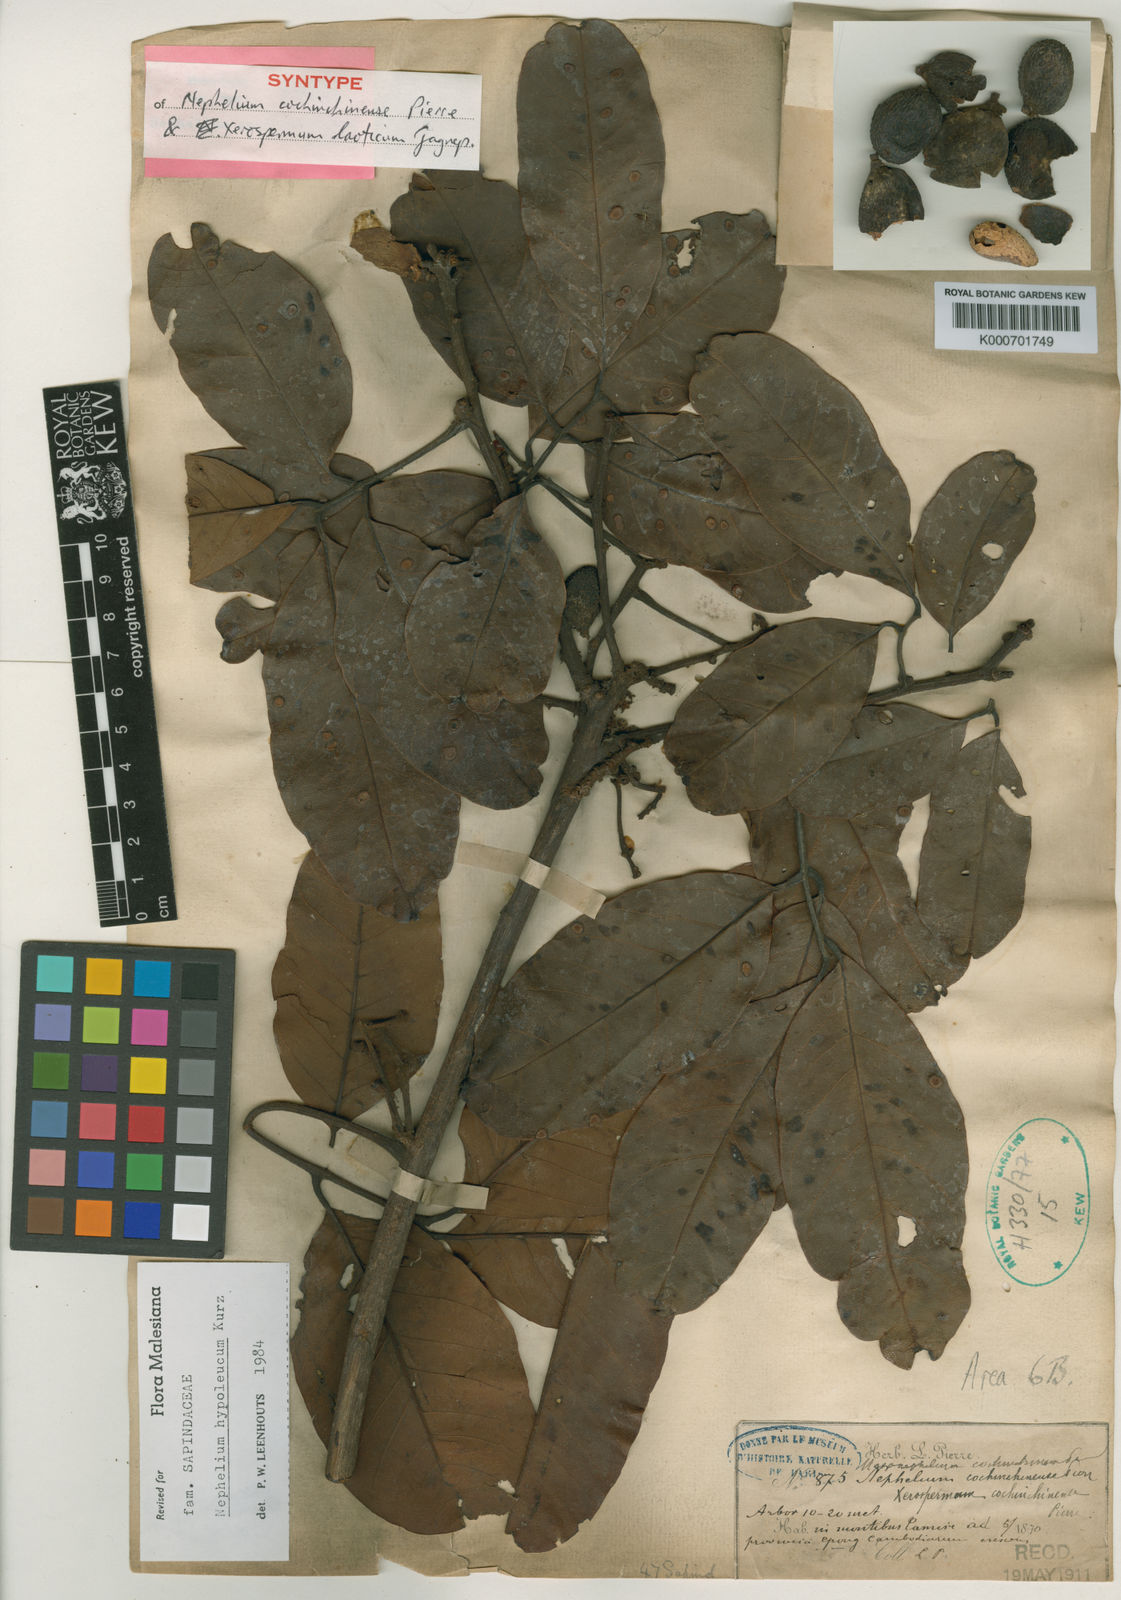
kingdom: Plantae
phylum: Tracheophyta
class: Magnoliopsida
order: Sapindales
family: Sapindaceae
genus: Nephelium
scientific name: Nephelium hypoleucum
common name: Korlan
